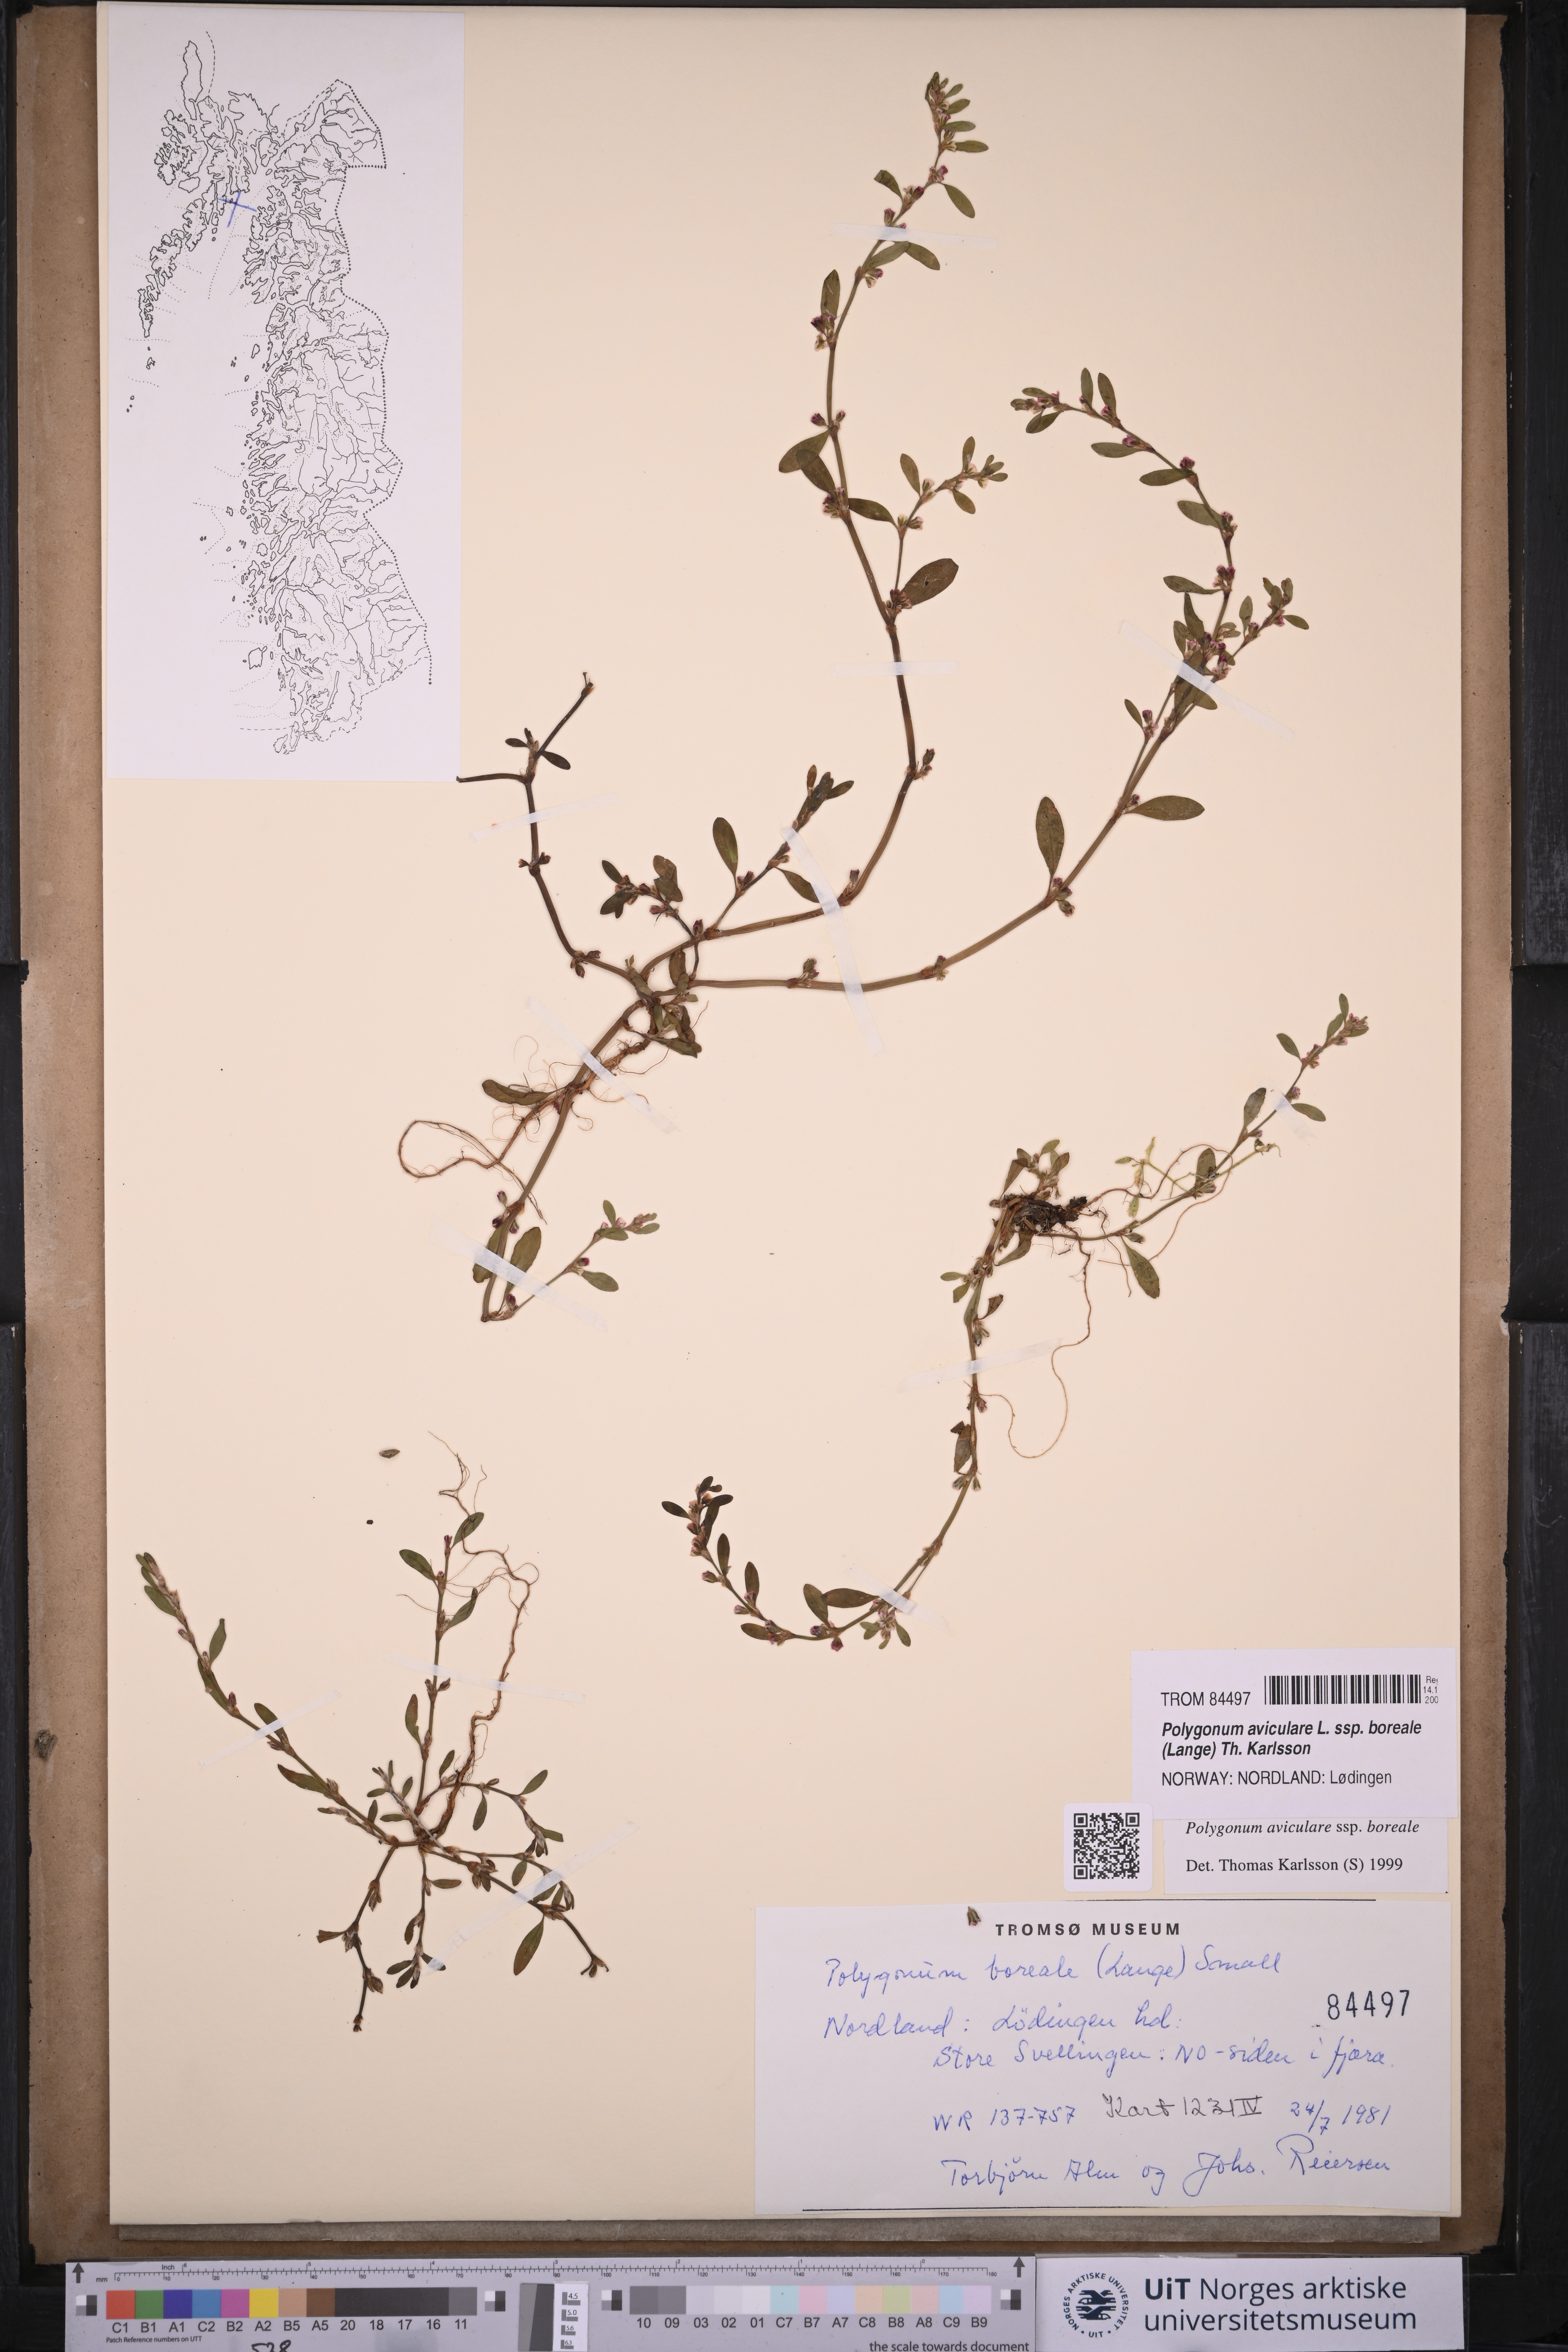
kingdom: Plantae
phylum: Tracheophyta
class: Magnoliopsida
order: Caryophyllales
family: Polygonaceae
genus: Polygonum
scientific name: Polygonum boreale
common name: Northern knotgrass
